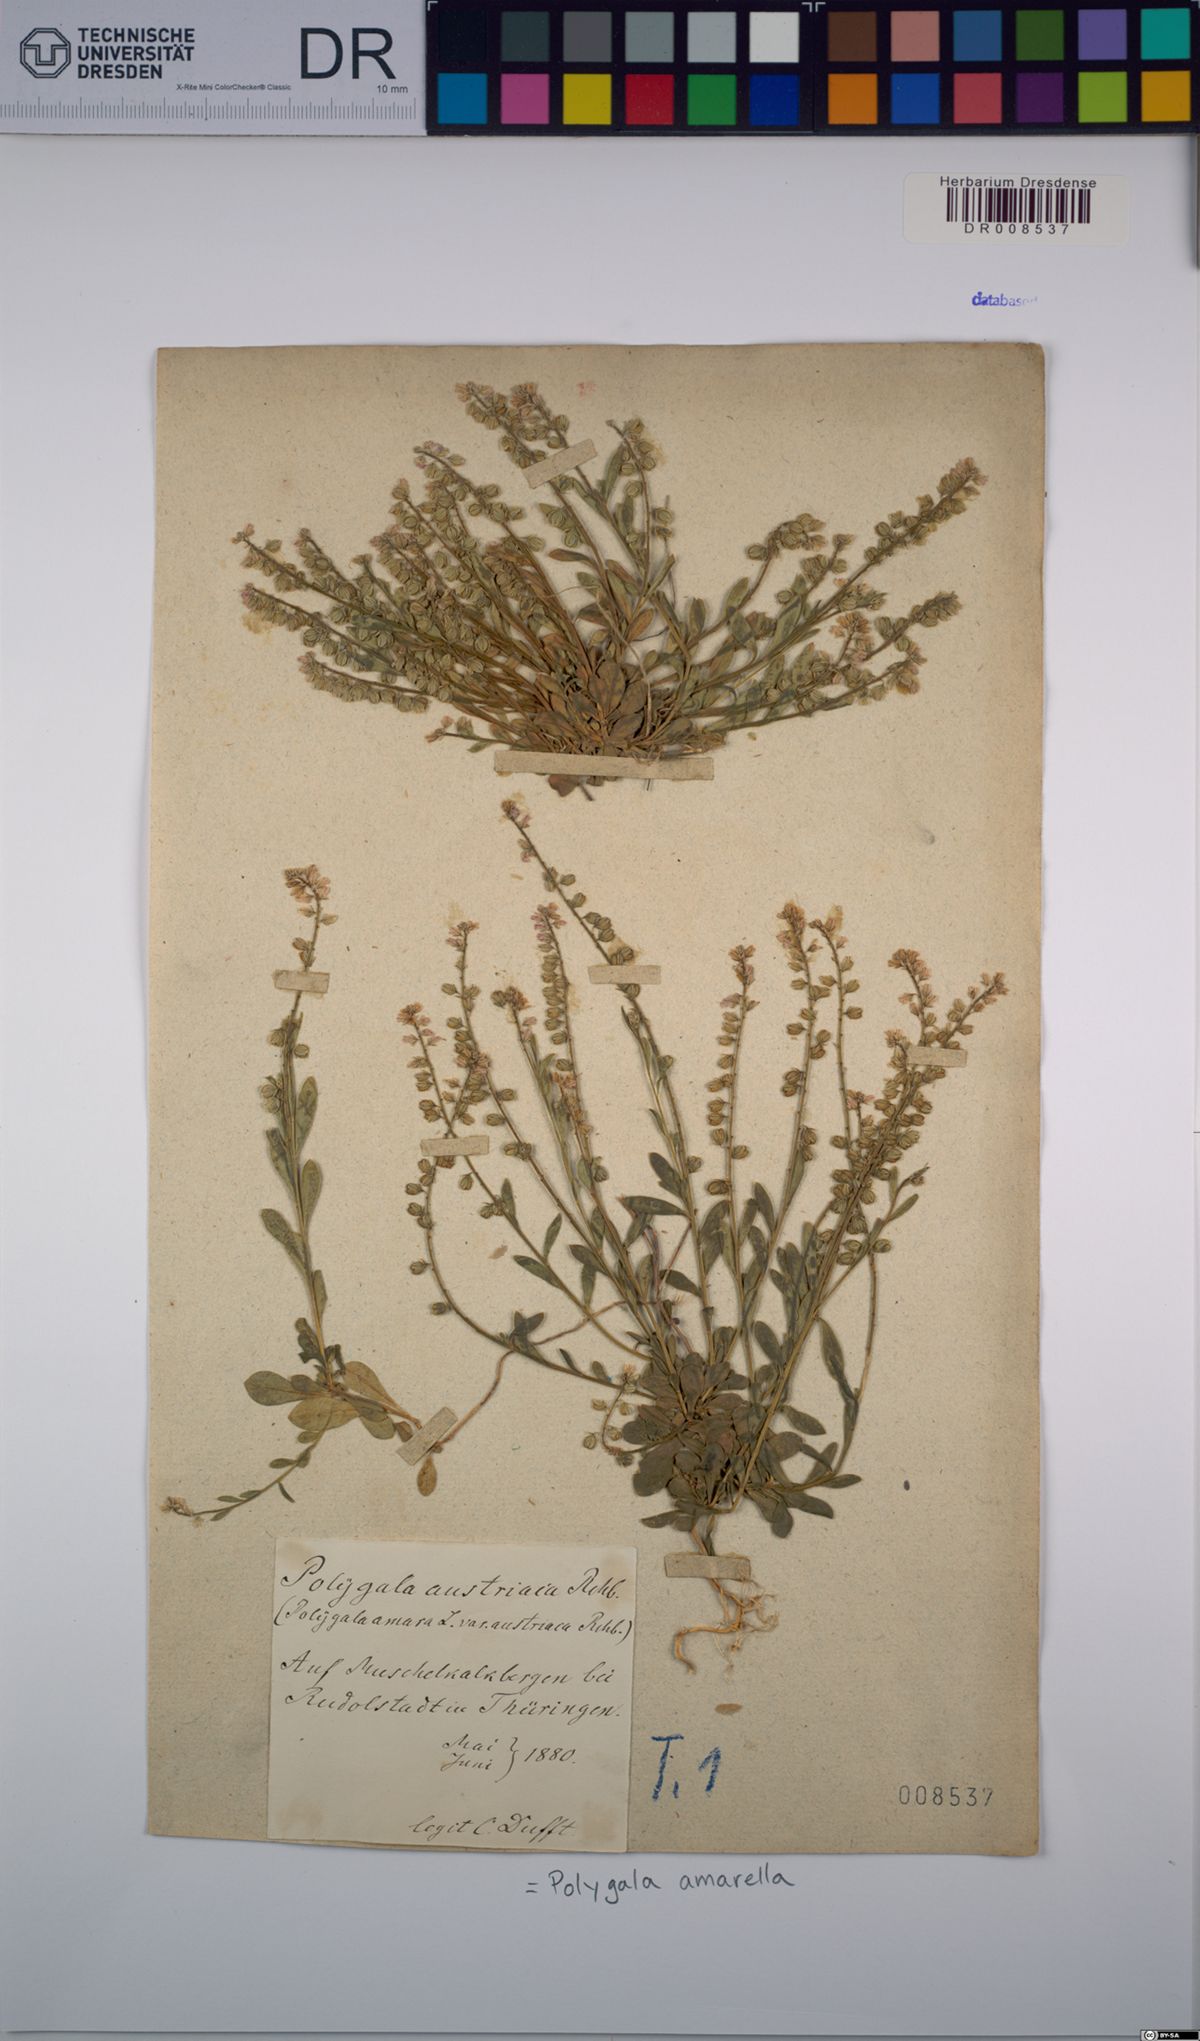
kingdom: Plantae
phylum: Tracheophyta
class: Magnoliopsida
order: Fabales
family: Polygalaceae
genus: Polygala
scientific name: Polygala amarella
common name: Dwarf milkwort
